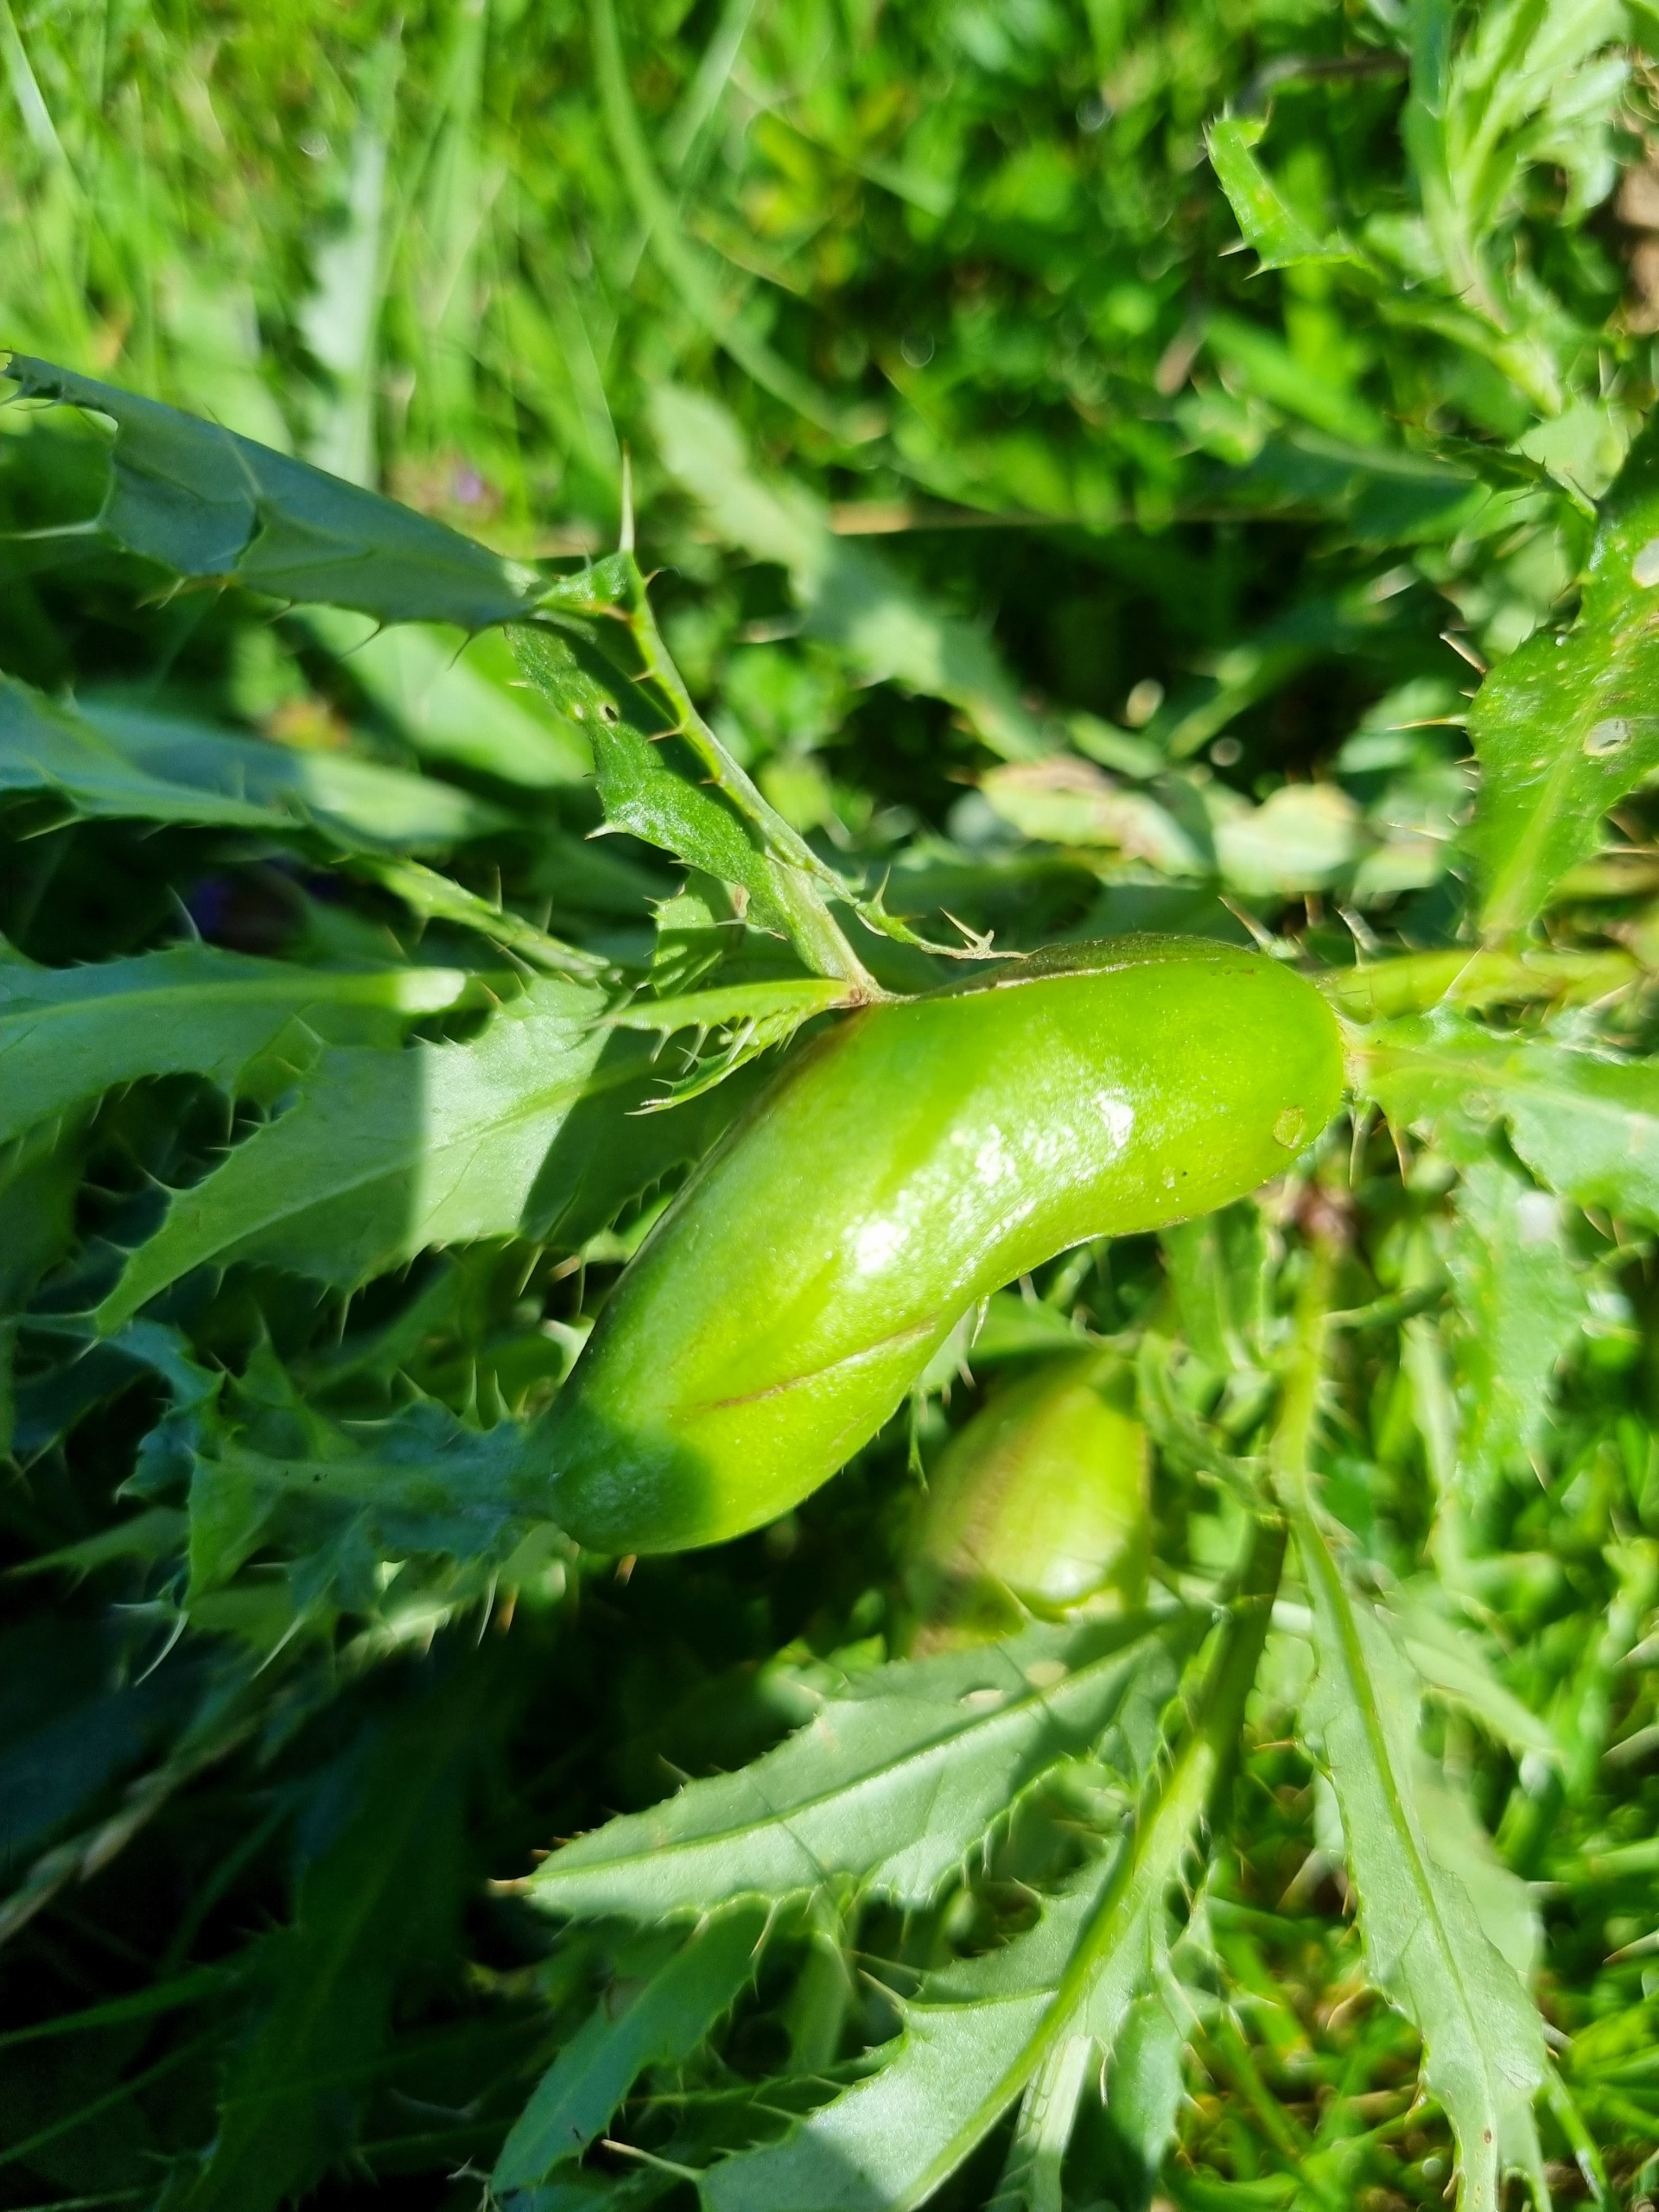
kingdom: Animalia
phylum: Arthropoda
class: Insecta
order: Diptera
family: Tephritidae
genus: Urophora
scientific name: Urophora cardui
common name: Tidselbåndflue
